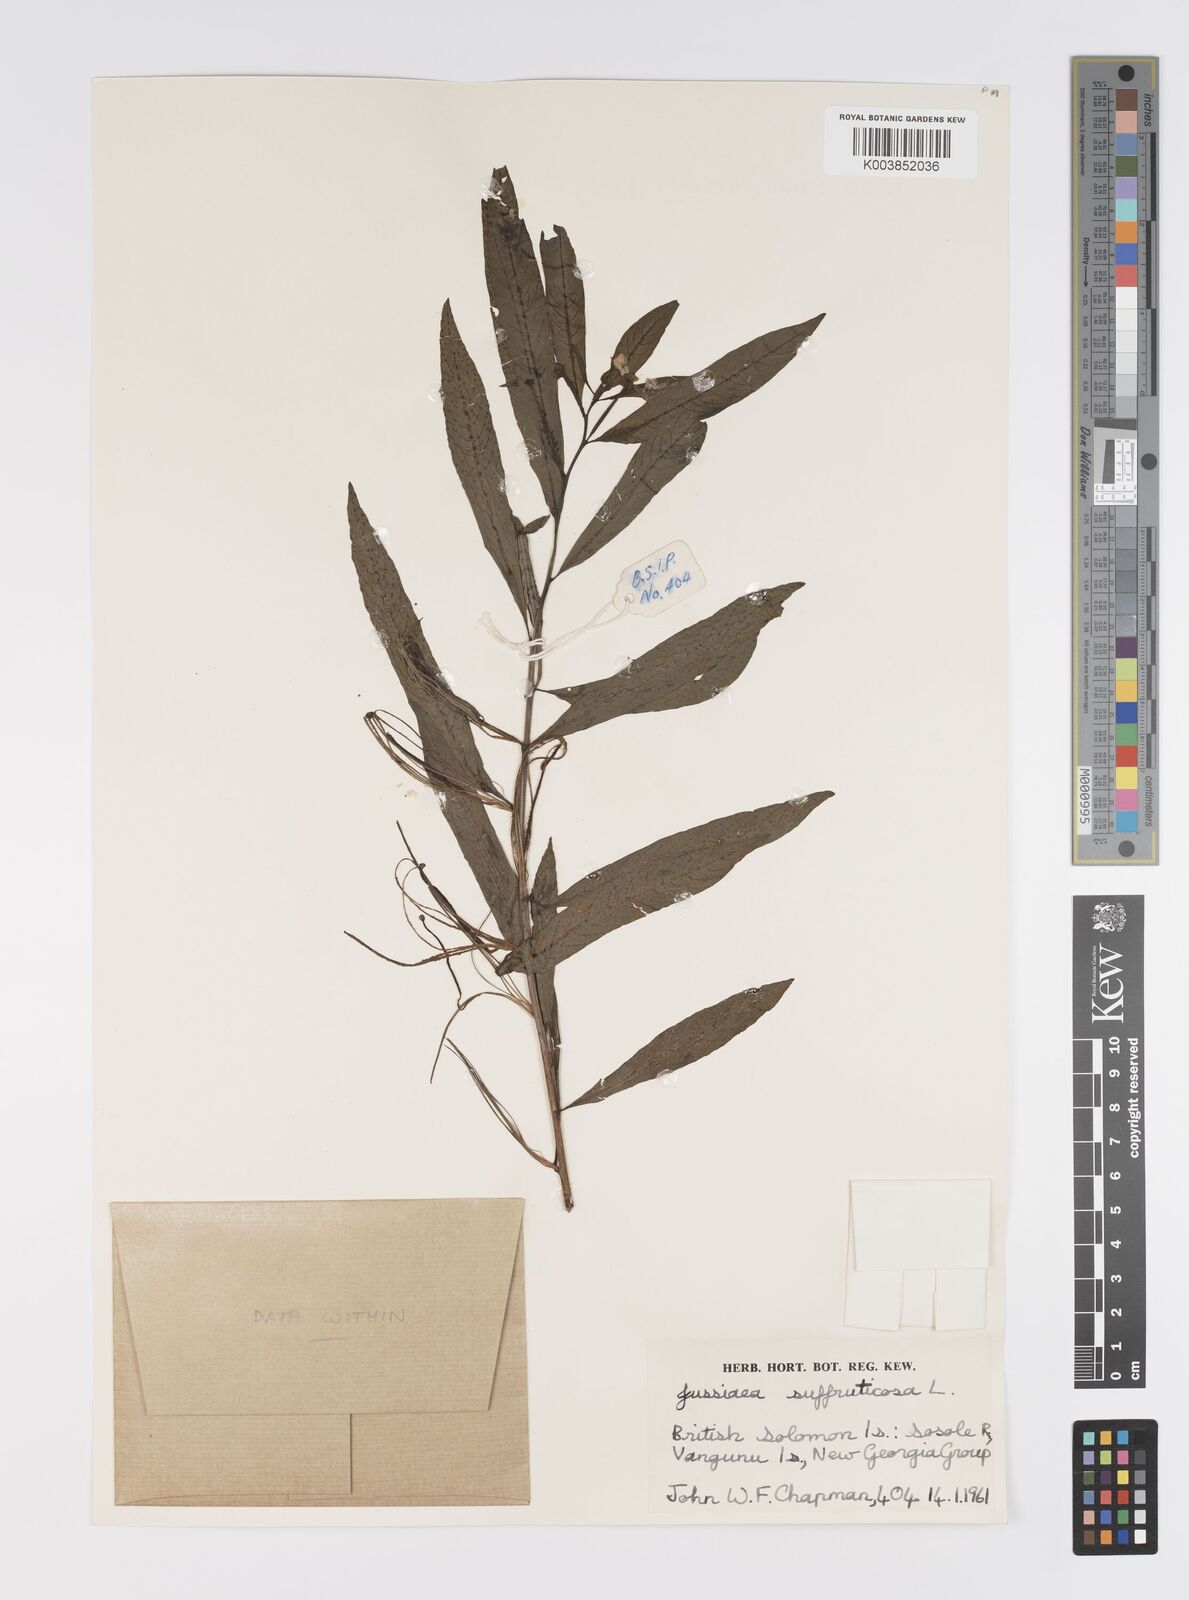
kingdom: Plantae
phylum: Tracheophyta
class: Magnoliopsida
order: Myrtales
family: Onagraceae
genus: Ludwigia
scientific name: Ludwigia octovalvis
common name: Water-primrose
